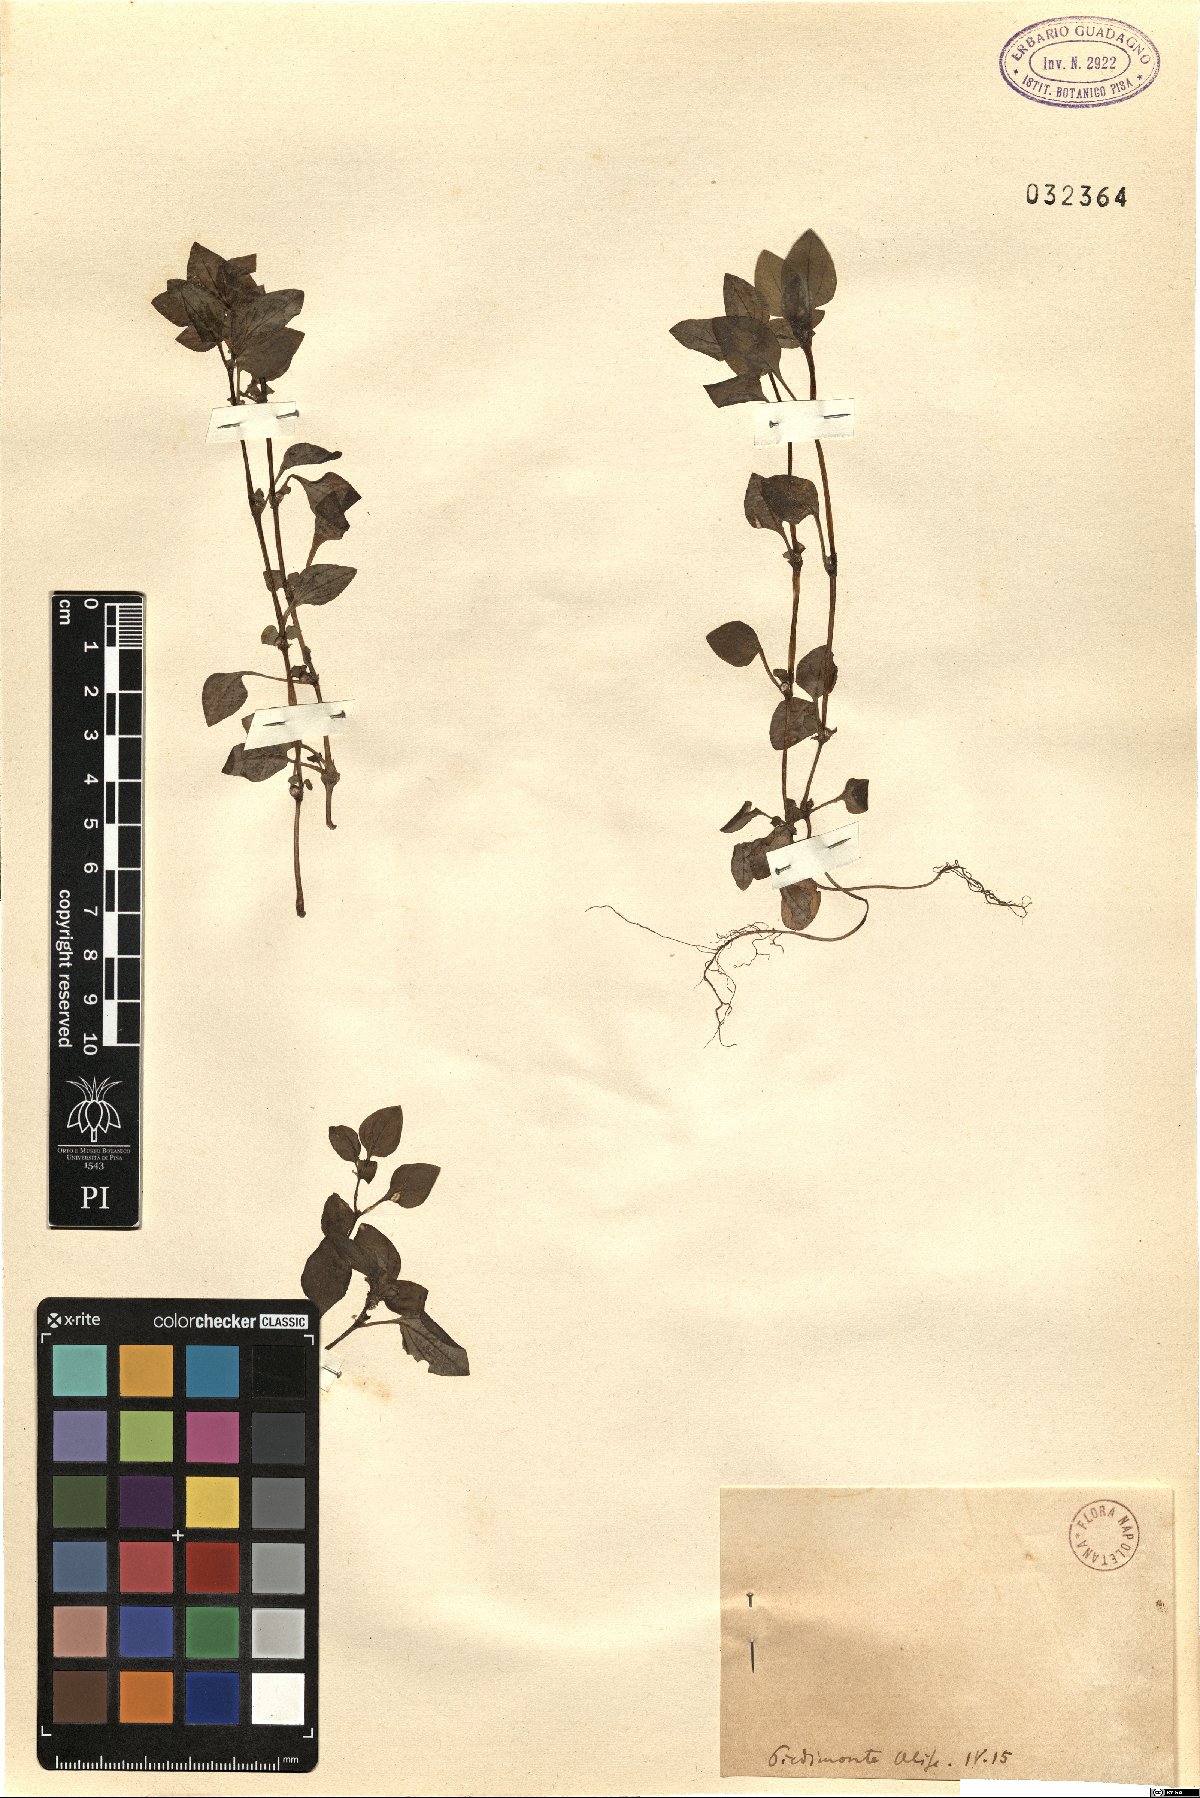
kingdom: Plantae
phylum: Tracheophyta
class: Magnoliopsida
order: Gentianales
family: Rubiaceae
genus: Theligonum
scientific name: Theligonum
